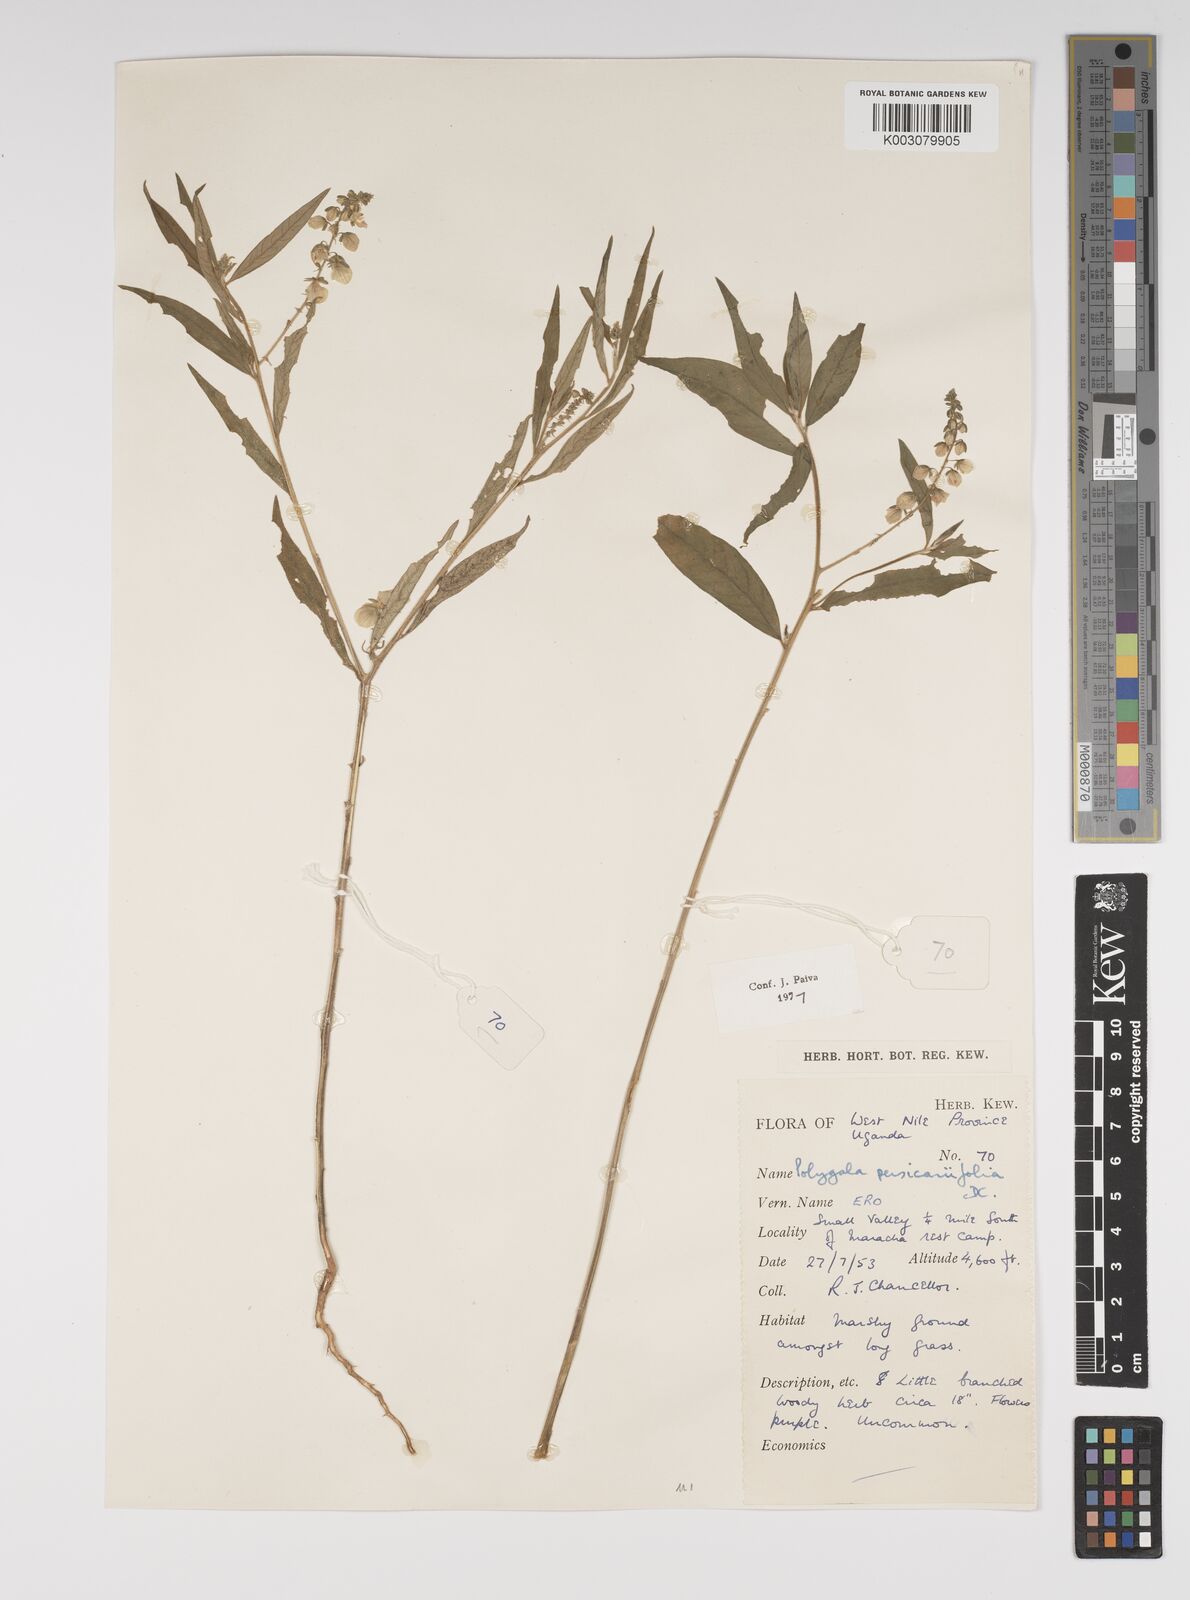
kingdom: Plantae
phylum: Tracheophyta
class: Magnoliopsida
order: Fabales
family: Polygalaceae
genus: Polygala
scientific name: Polygala persicariifolia
